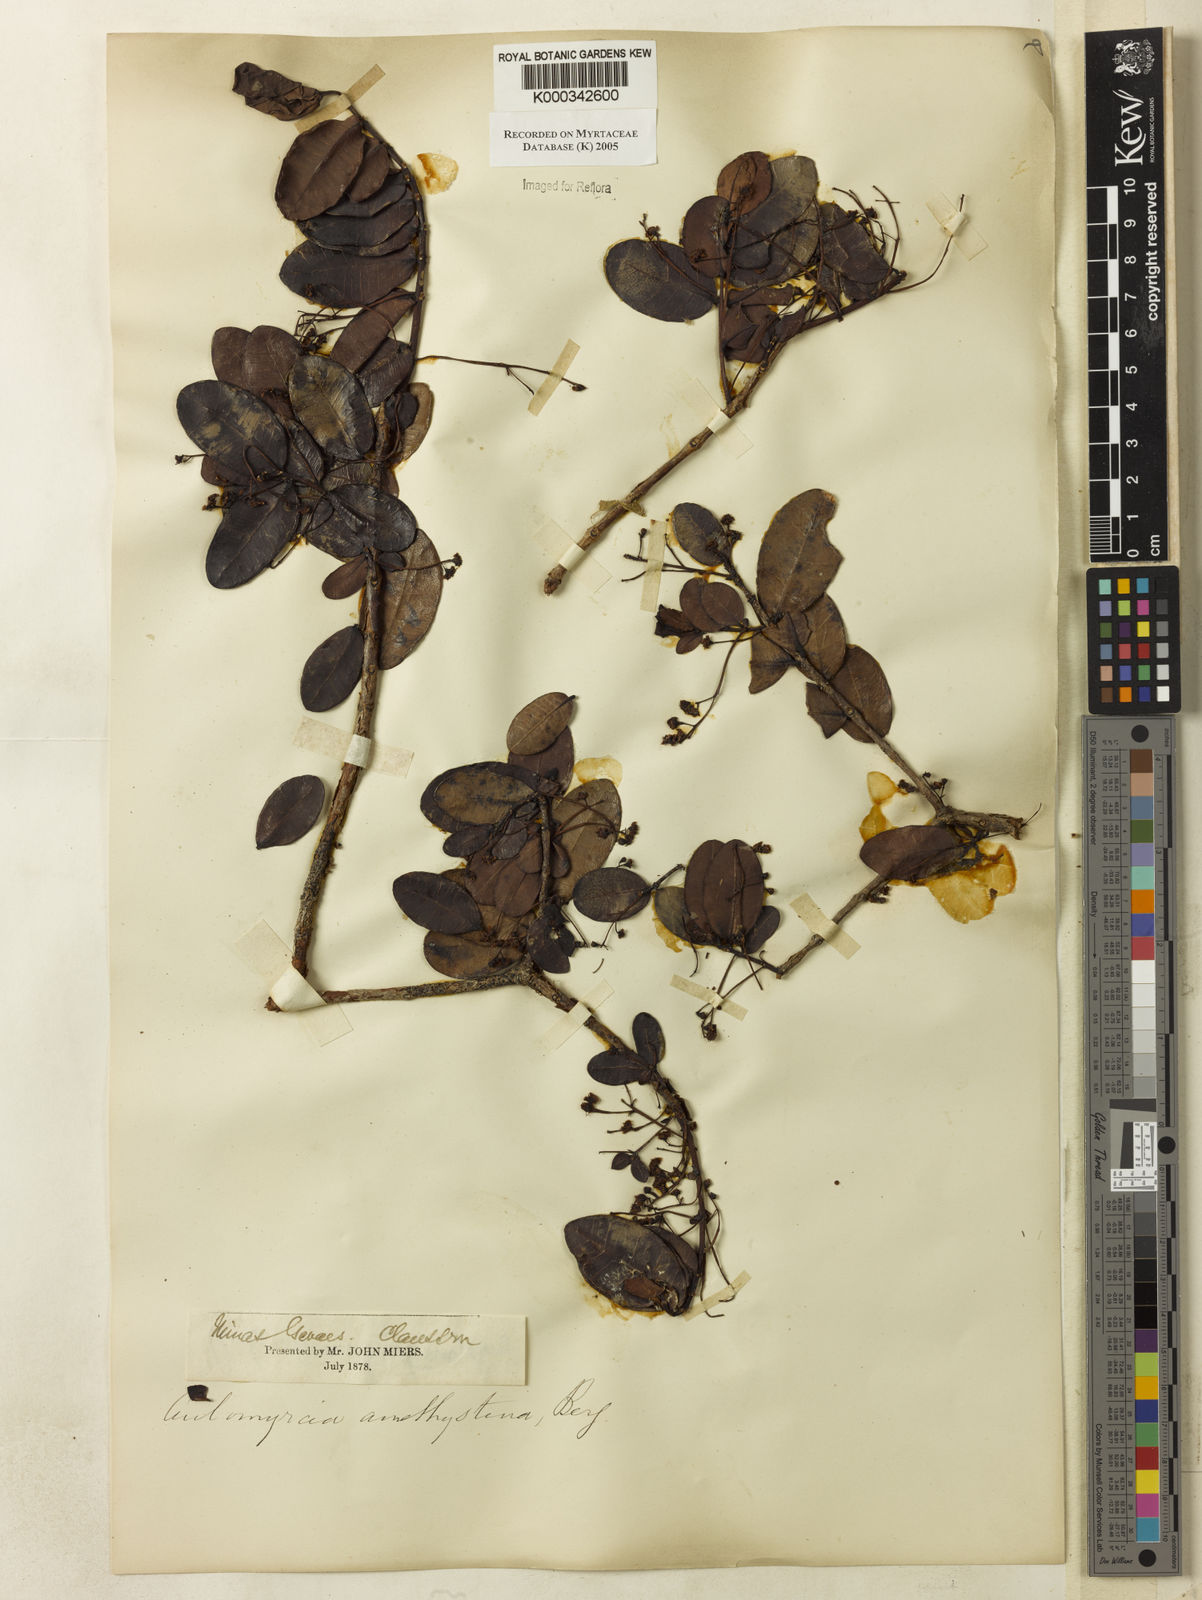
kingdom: Plantae
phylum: Tracheophyta
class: Magnoliopsida
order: Myrtales
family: Myrtaceae
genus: Myrcia
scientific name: Myrcia amethystina
